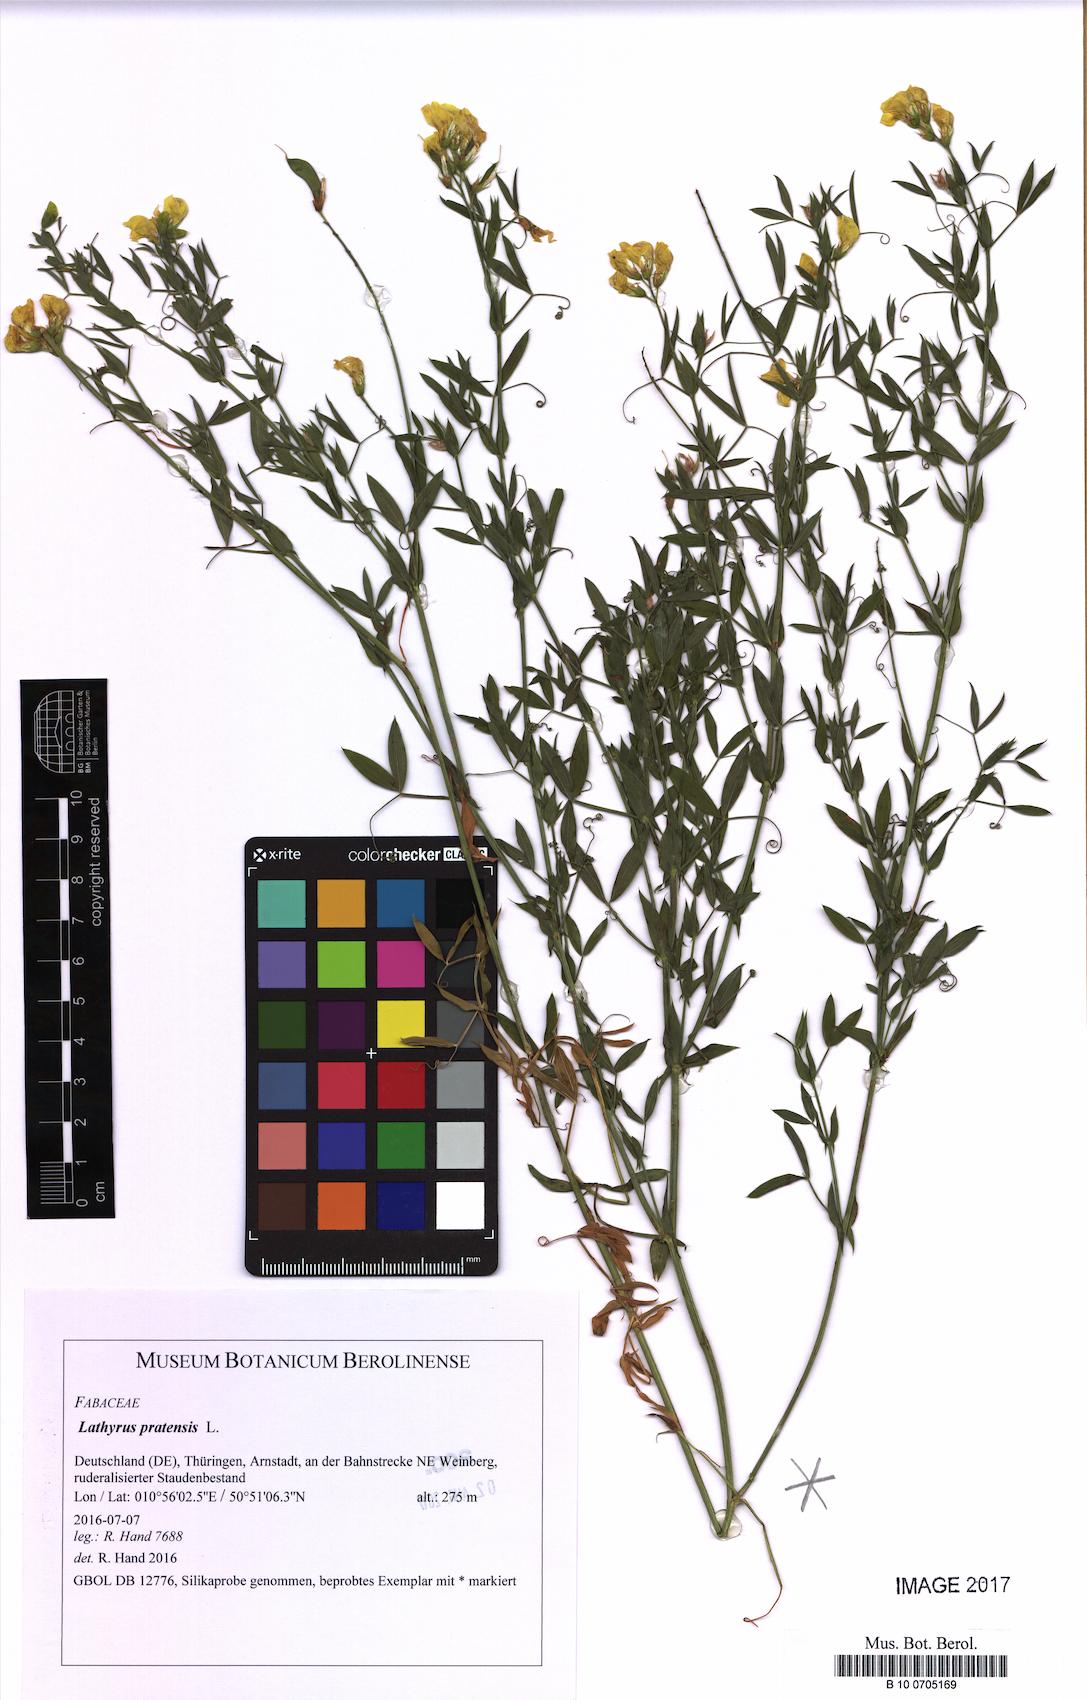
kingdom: Plantae
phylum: Tracheophyta
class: Magnoliopsida
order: Fabales
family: Fabaceae
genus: Lathyrus
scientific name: Lathyrus pratensis
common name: Meadow vetchling
